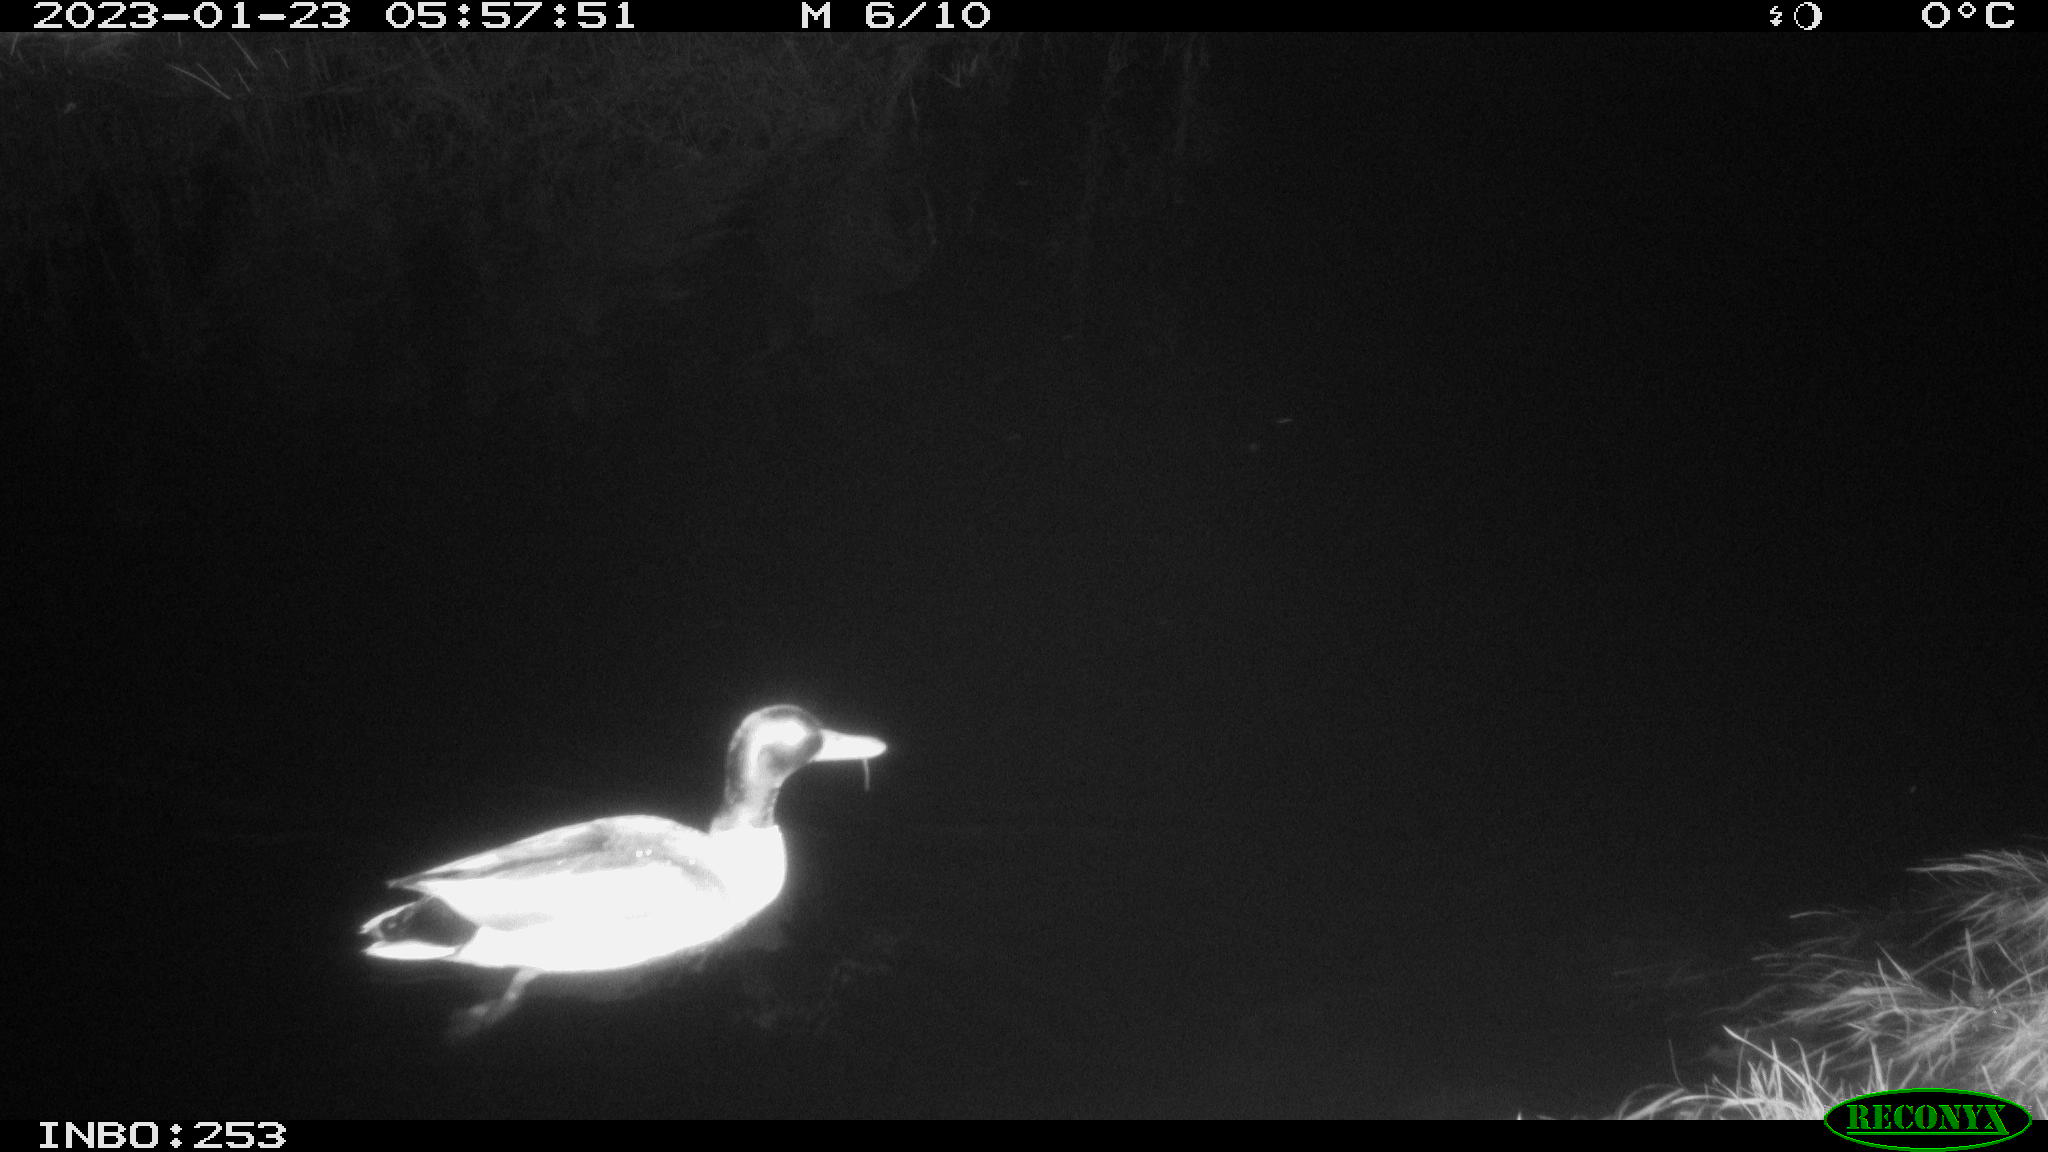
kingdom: Animalia
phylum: Chordata
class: Aves
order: Anseriformes
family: Anatidae
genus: Anas
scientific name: Anas
